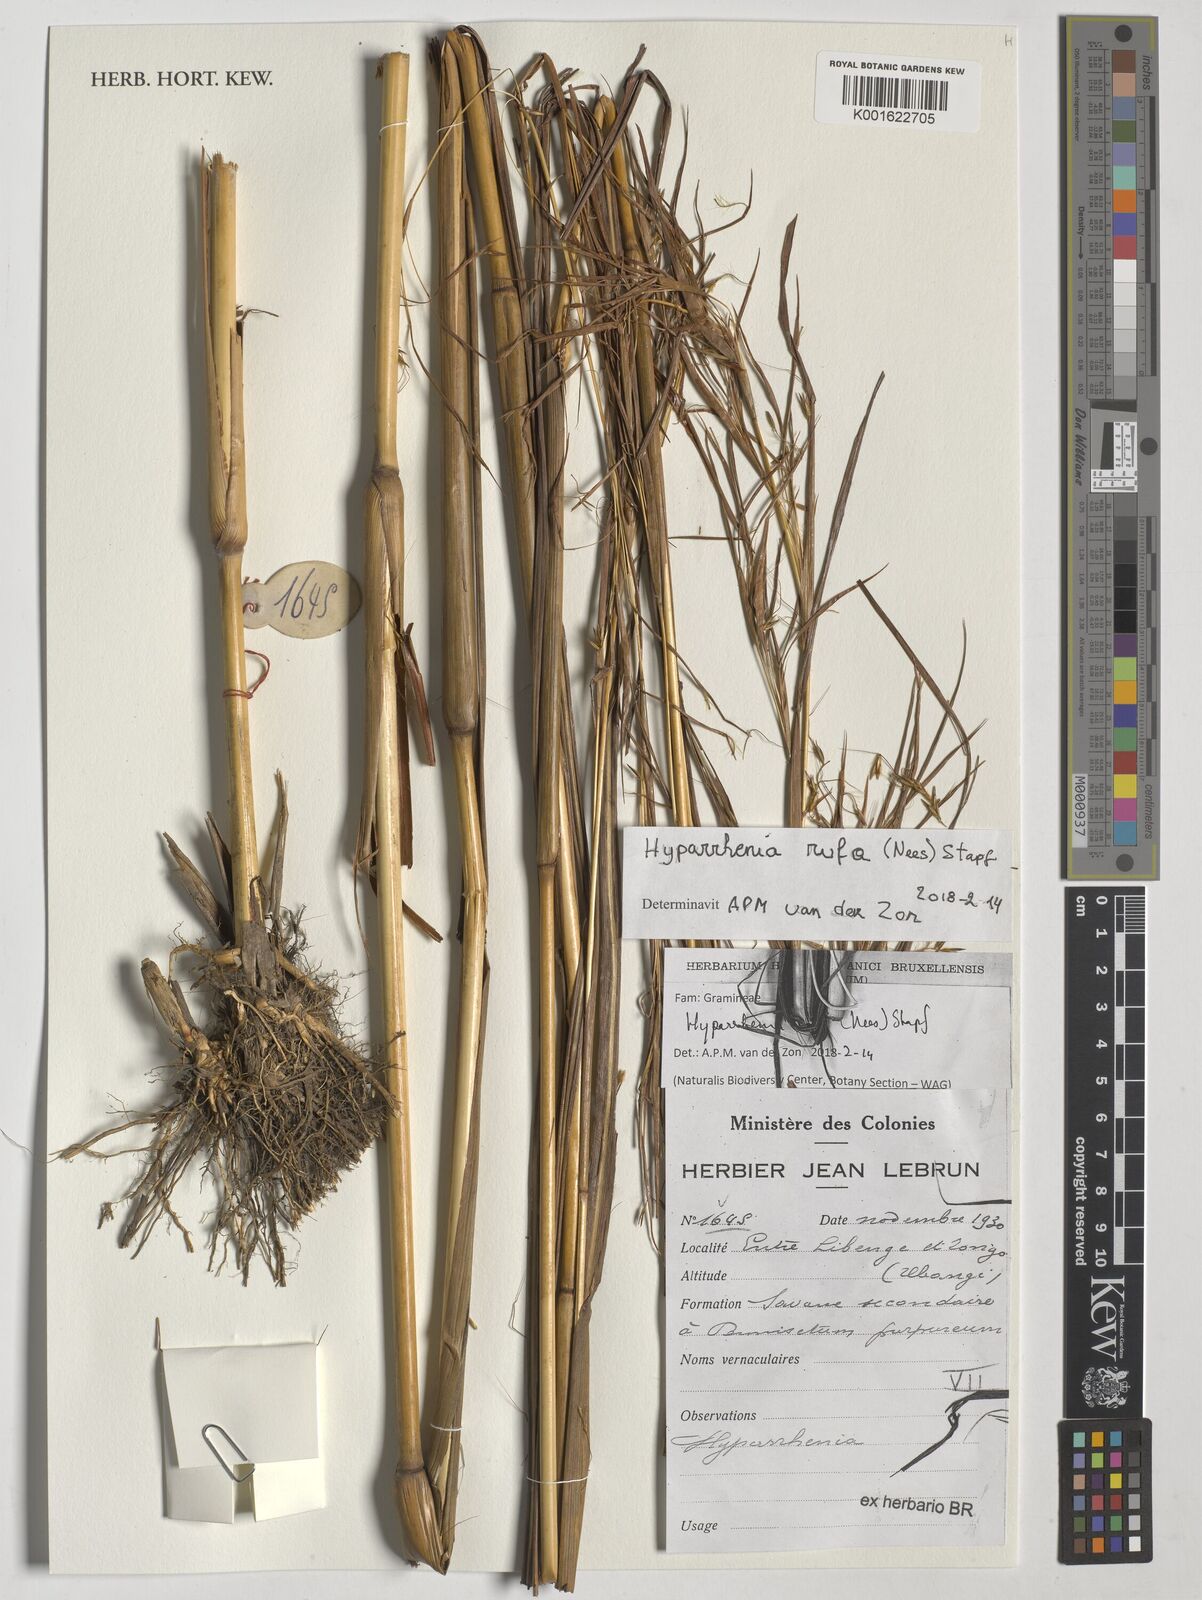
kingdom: Plantae
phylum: Tracheophyta
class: Liliopsida
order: Poales
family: Poaceae
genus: Hyparrhenia
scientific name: Hyparrhenia rufa
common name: Jaraguagrass
